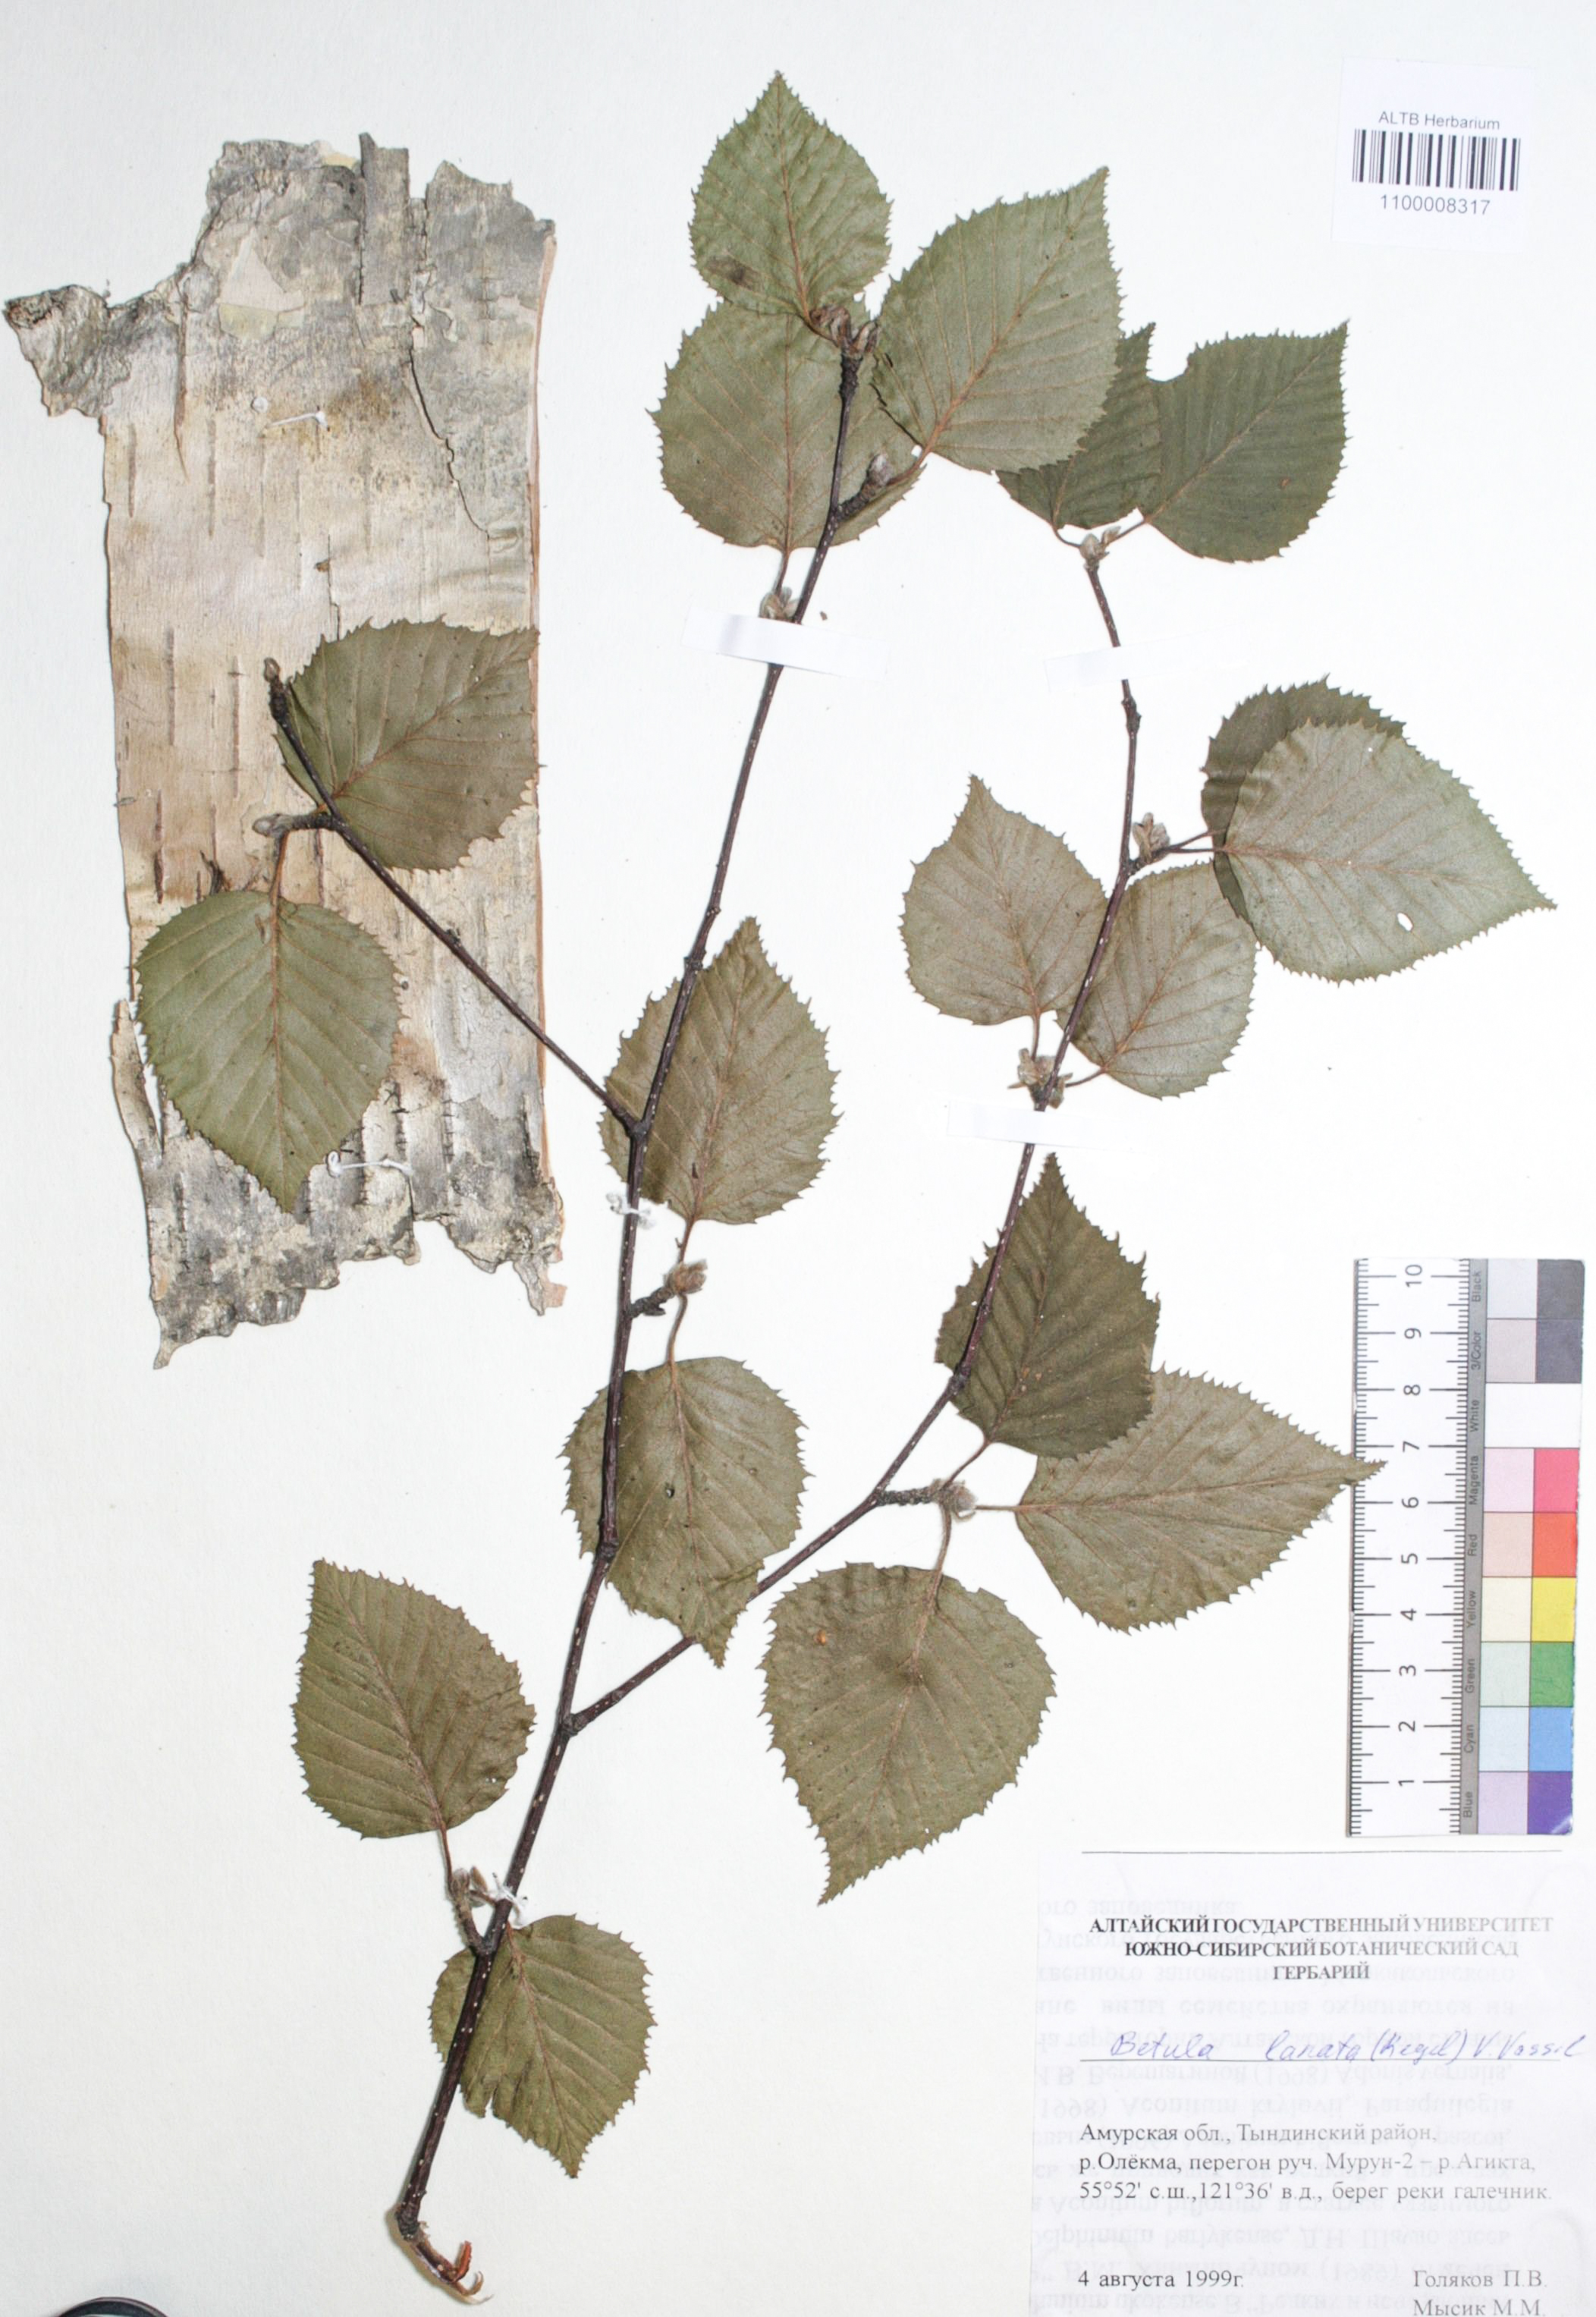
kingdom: Plantae
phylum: Tracheophyta
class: Magnoliopsida
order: Fagales
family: Betulaceae
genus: Betula
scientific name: Betula ermanii
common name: Erman's birch
